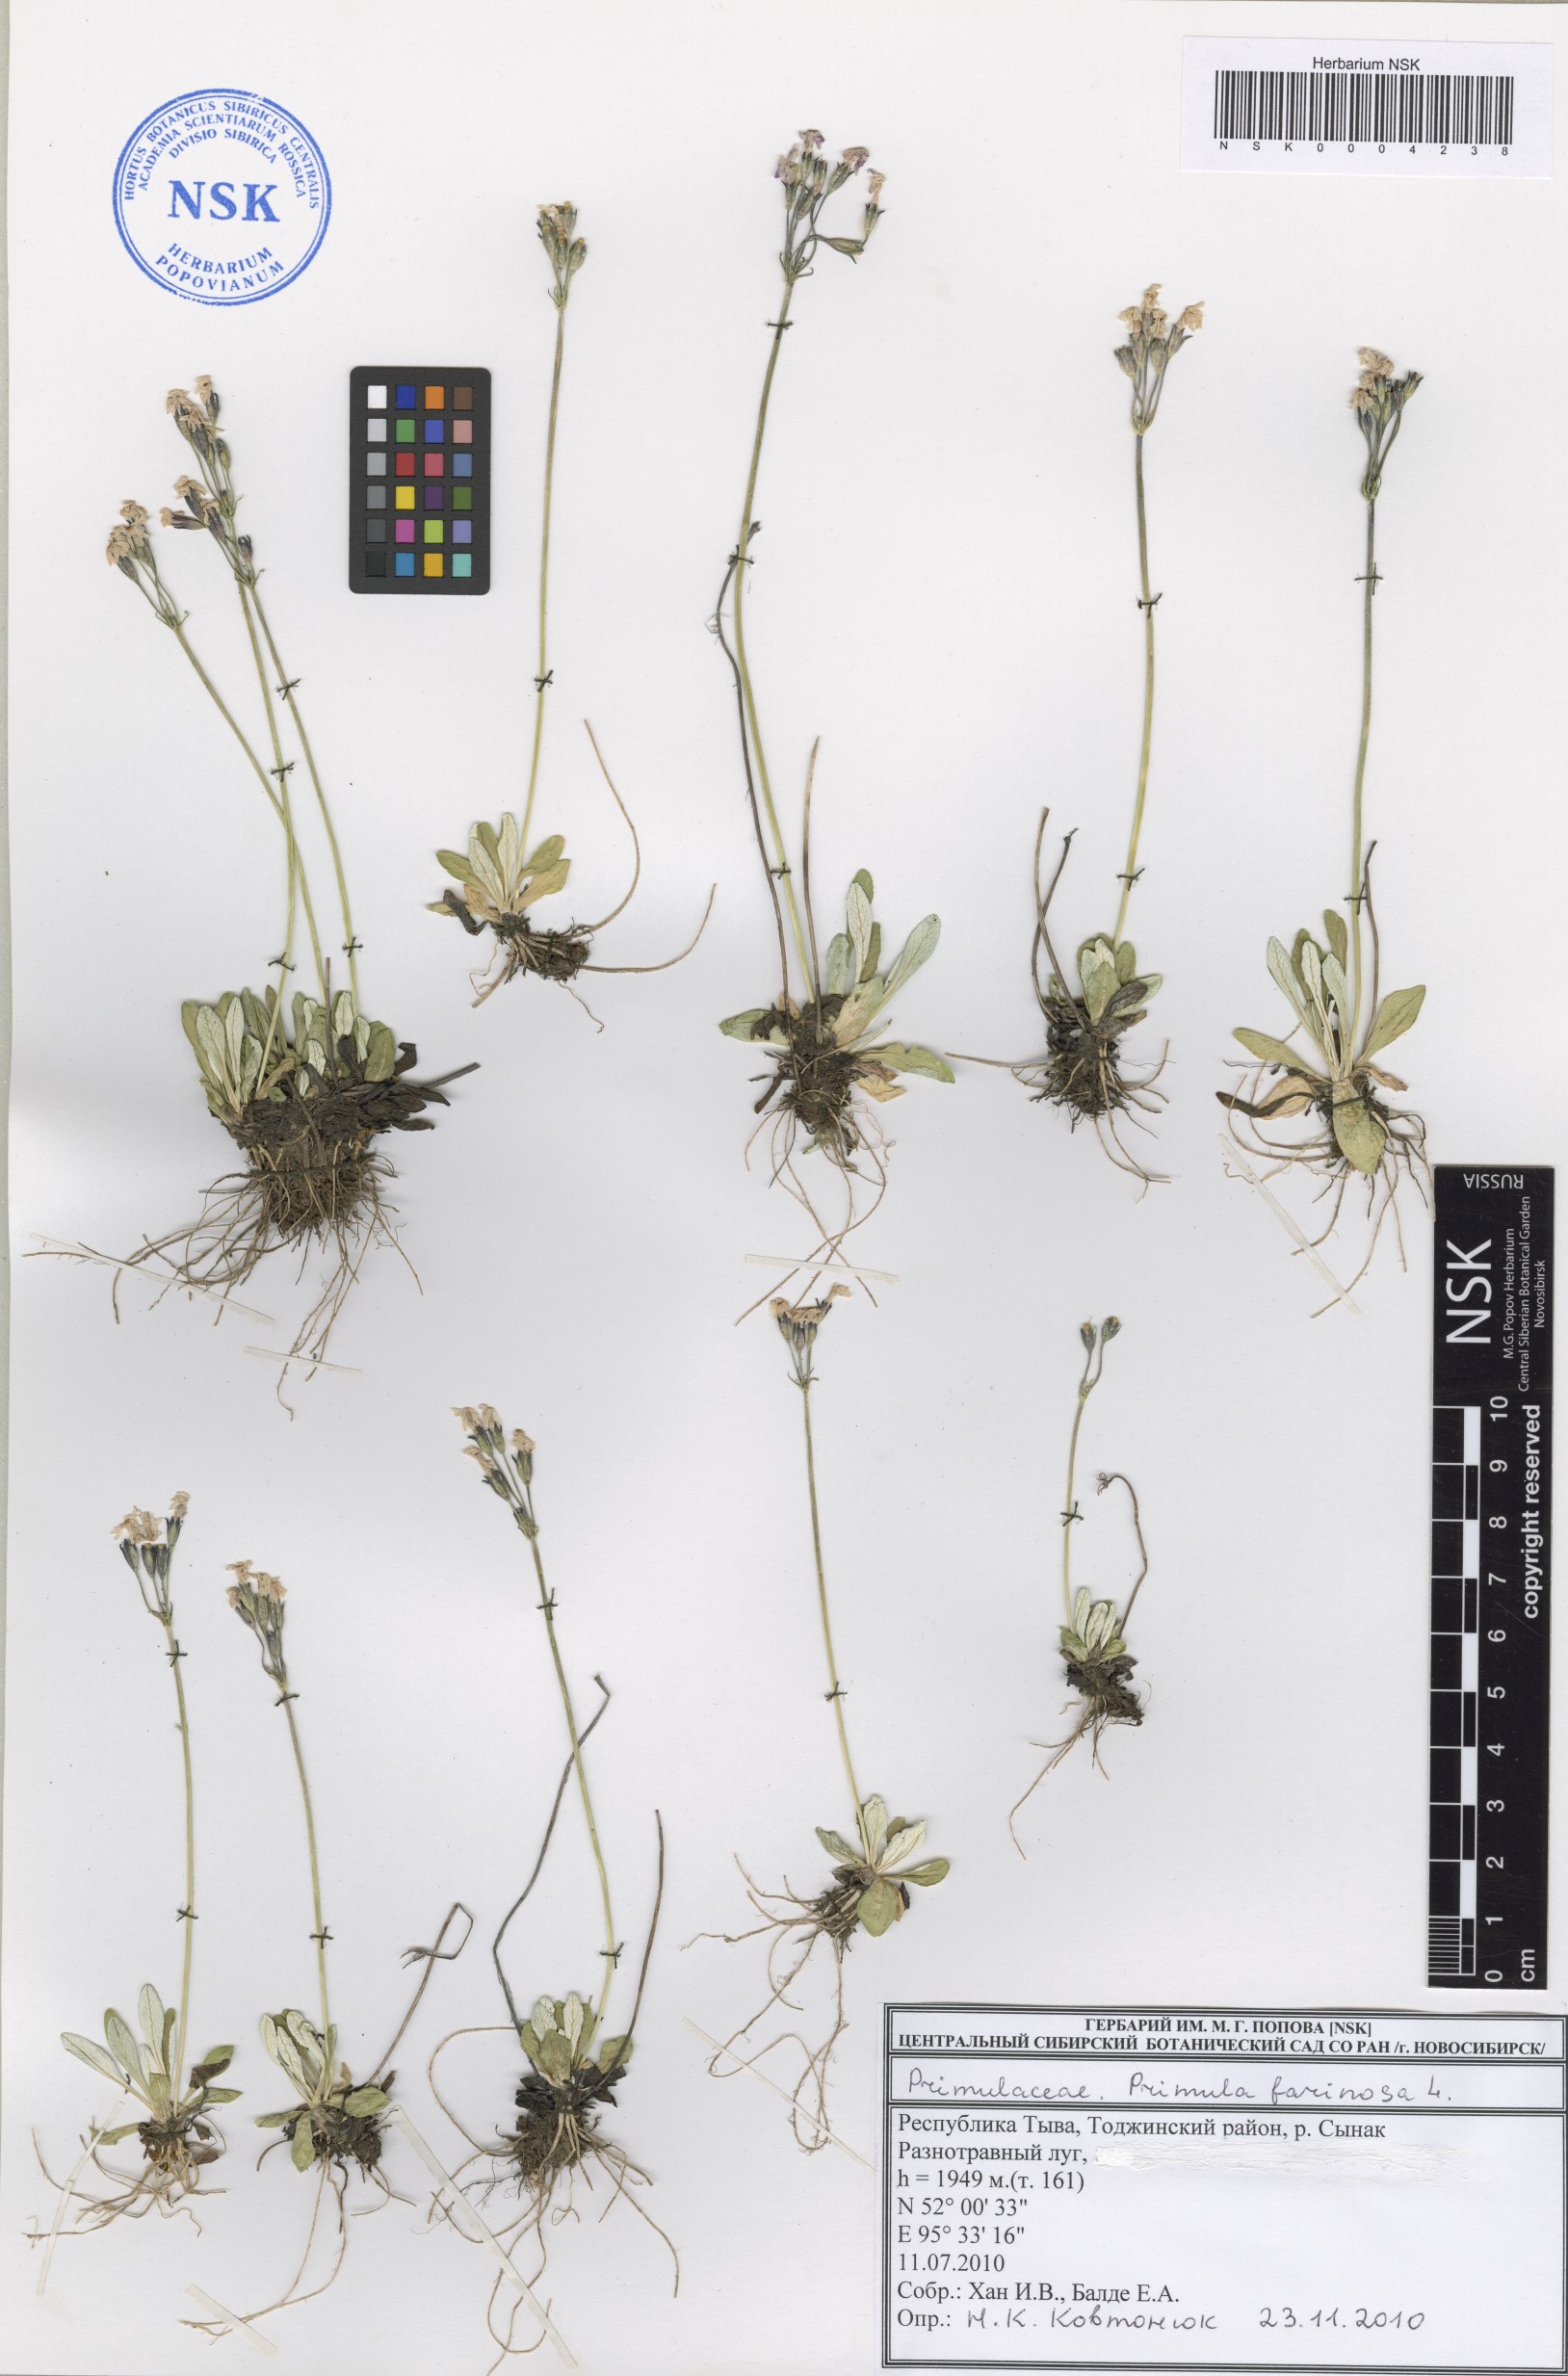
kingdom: Plantae
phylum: Tracheophyta
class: Magnoliopsida
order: Ericales
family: Primulaceae
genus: Primula
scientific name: Primula farinosa
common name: Bird's-eye primrose
